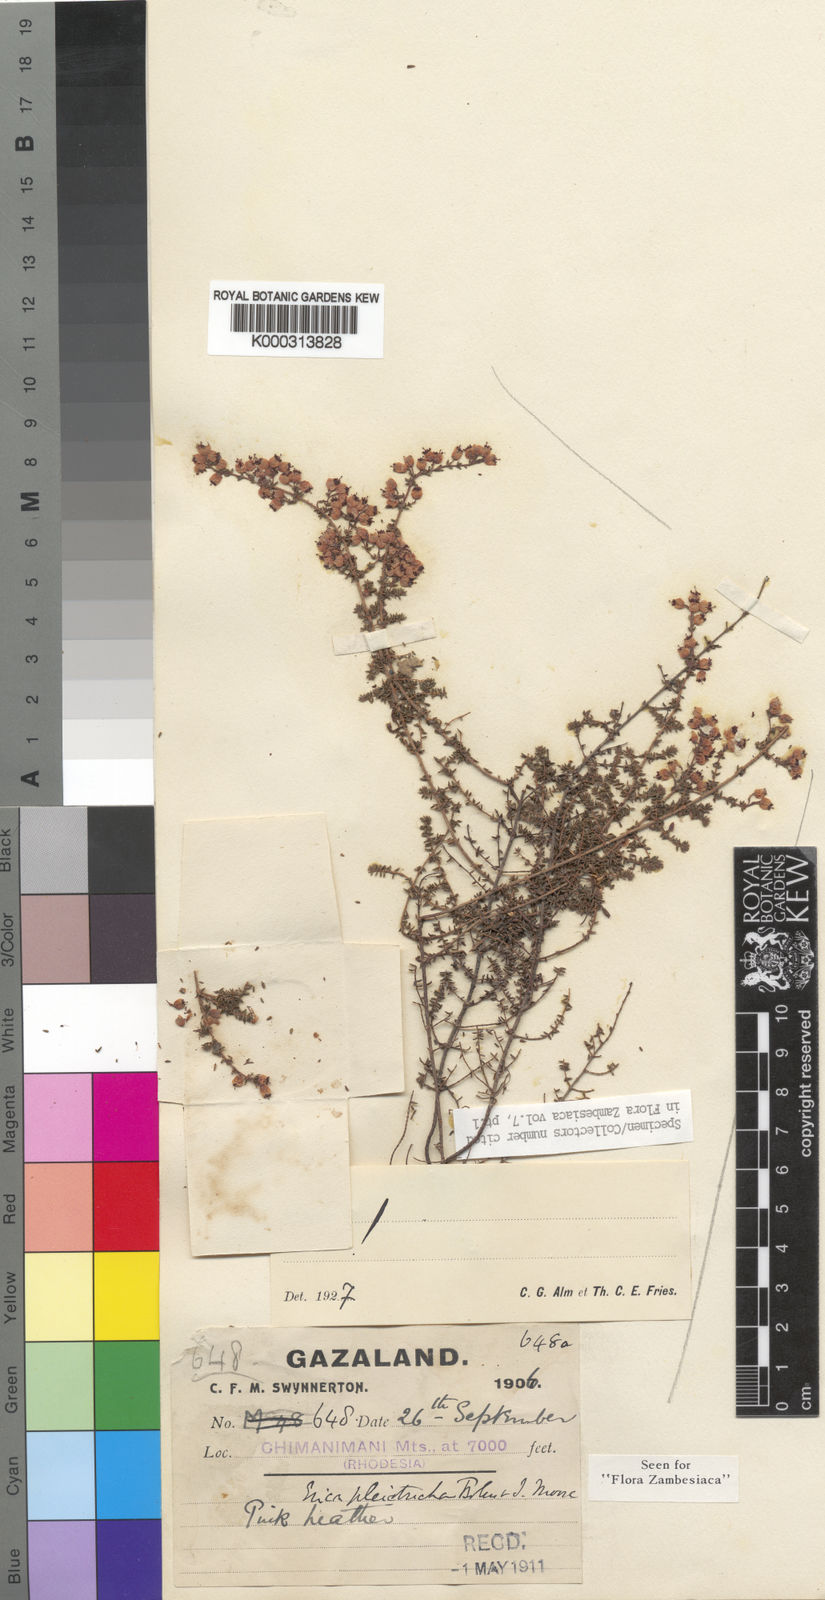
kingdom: Plantae
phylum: Tracheophyta
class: Magnoliopsida
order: Ericales
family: Ericaceae
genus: Erica
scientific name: Erica pleiotricha
